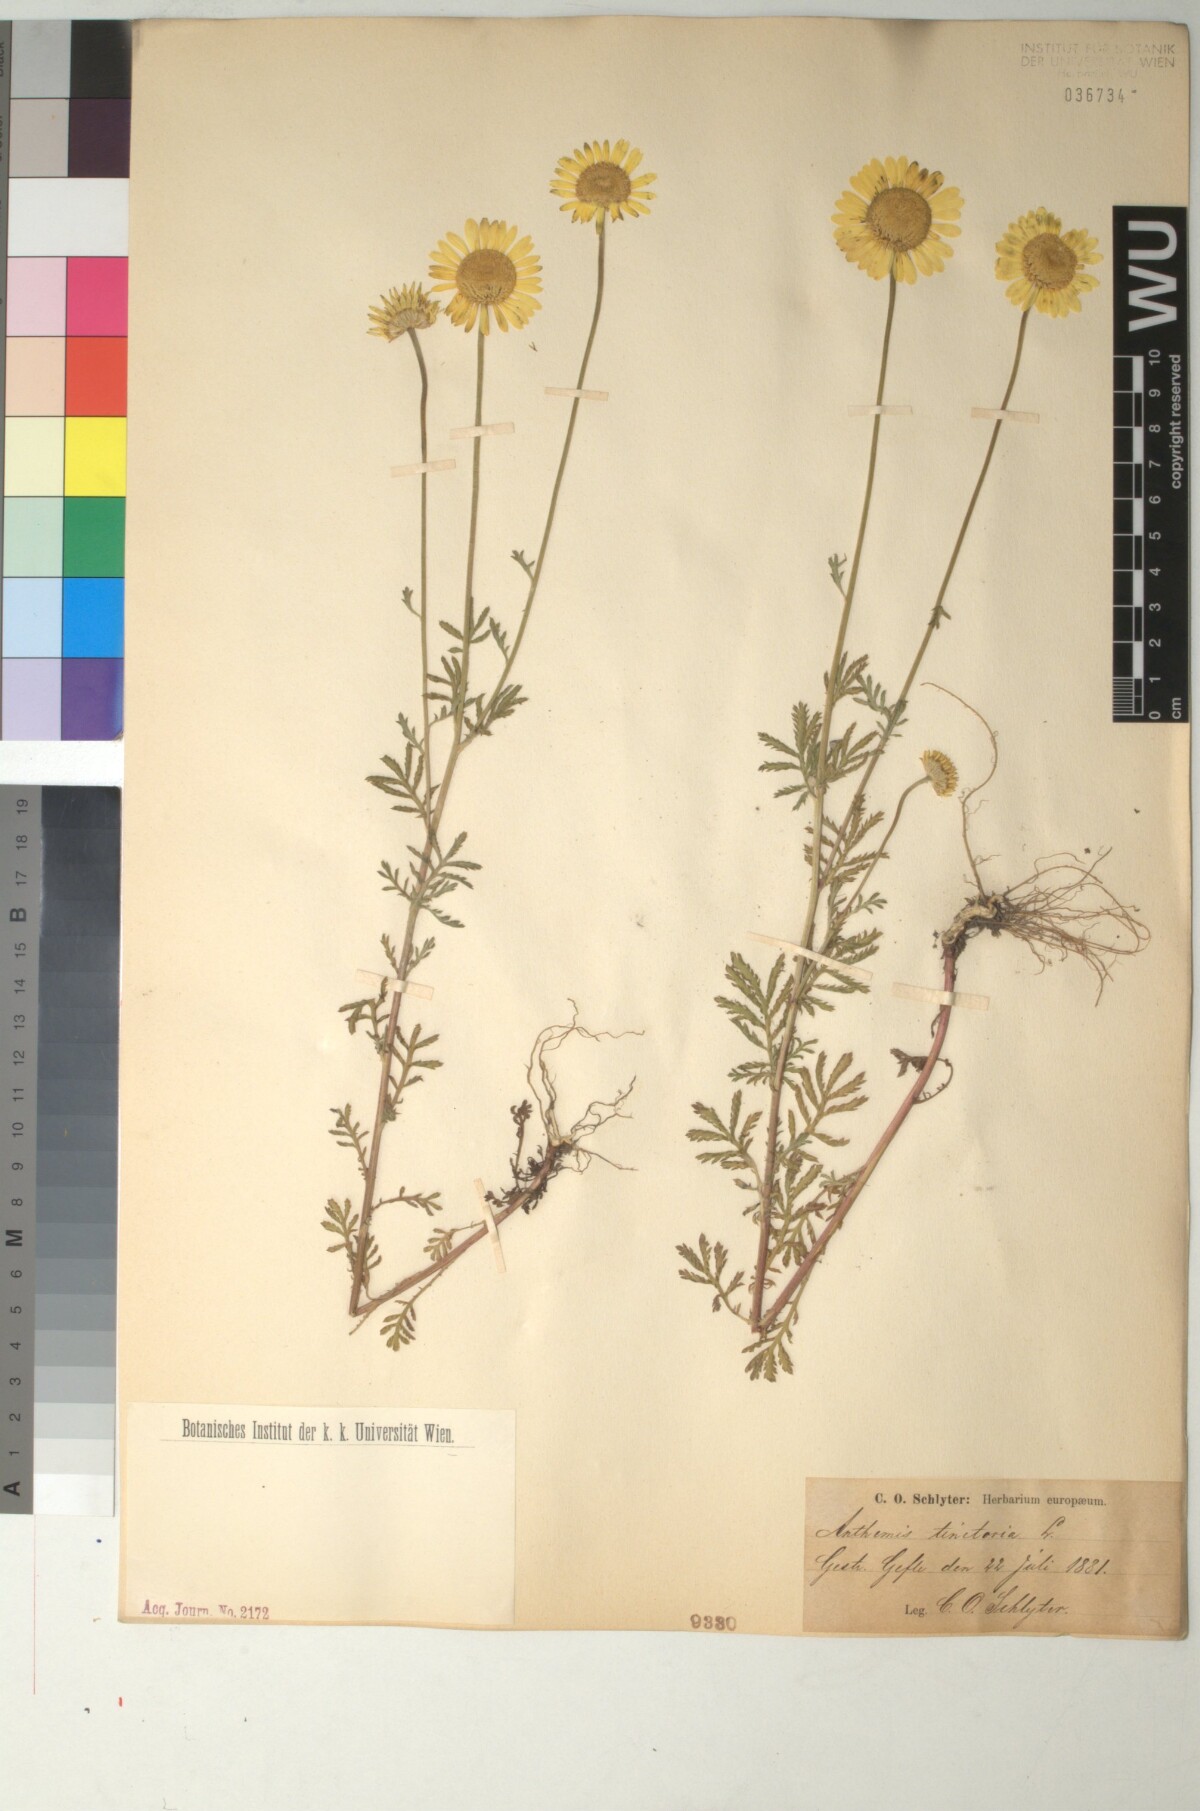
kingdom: Plantae
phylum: Tracheophyta
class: Magnoliopsida
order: Asterales
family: Asteraceae
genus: Cota
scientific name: Cota tinctoria
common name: Golden chamomile
